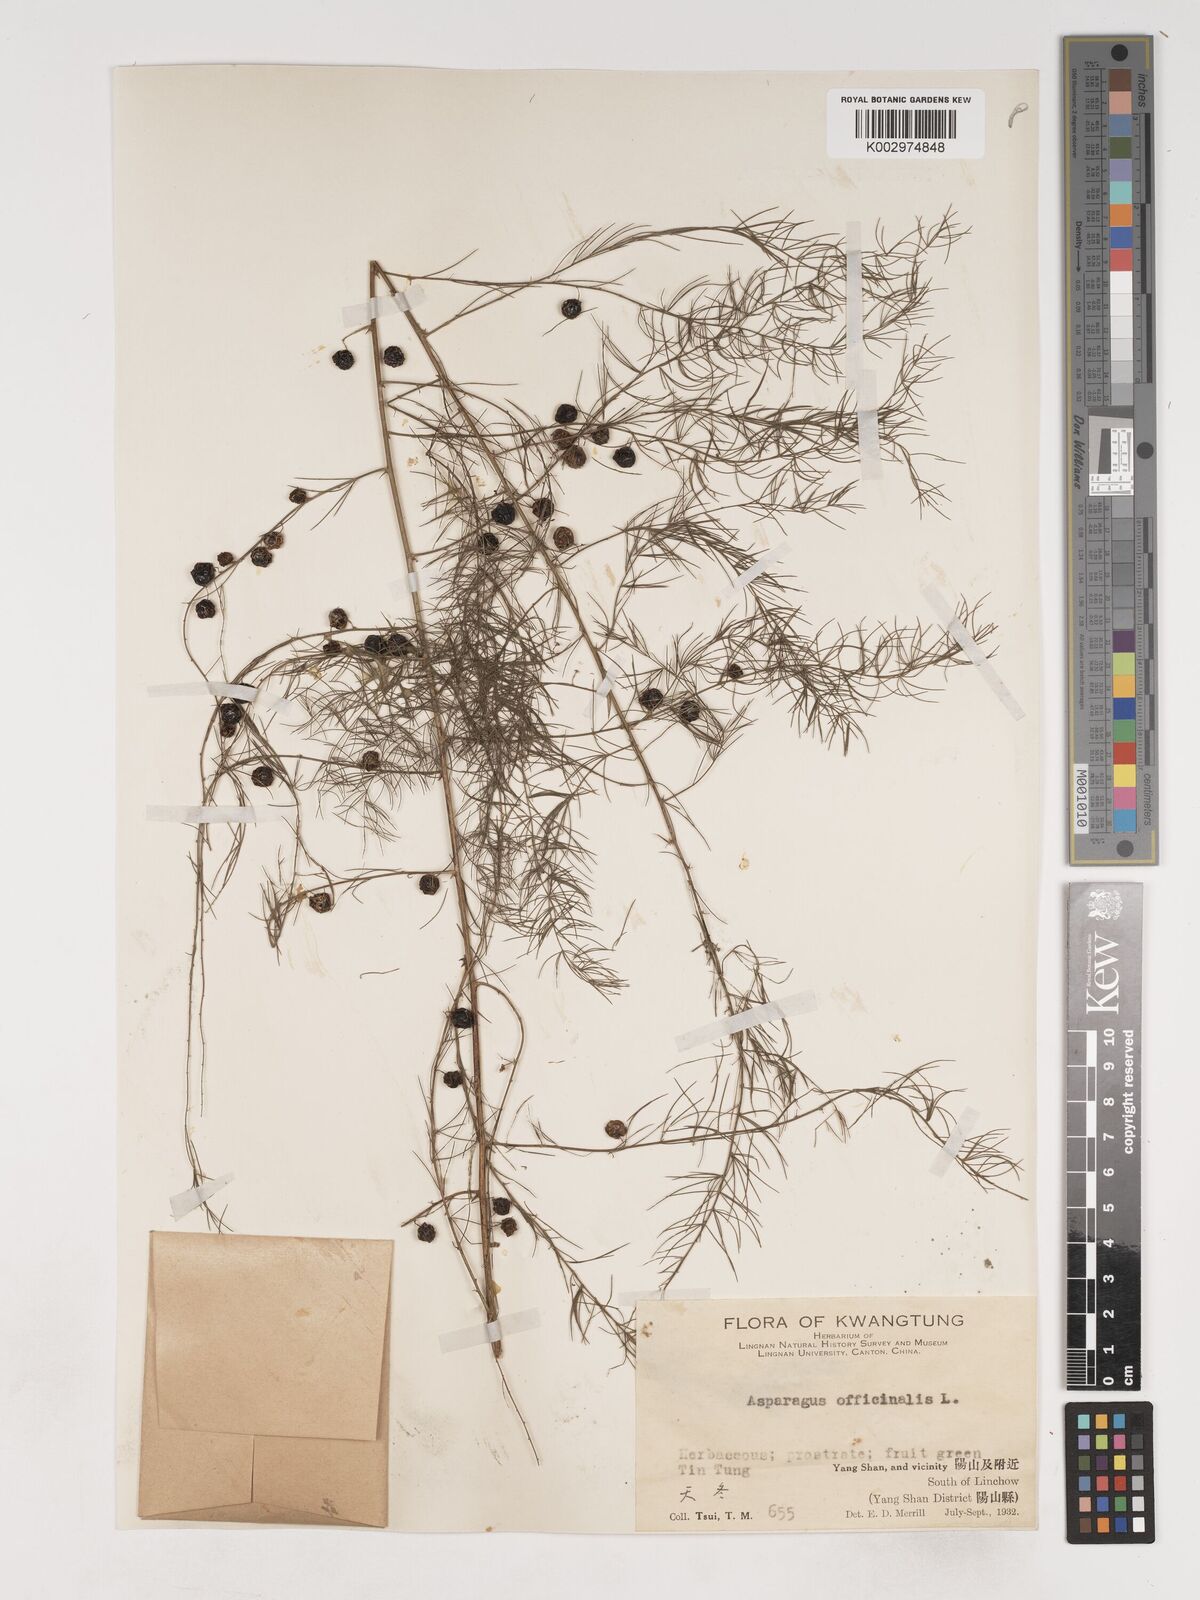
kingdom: Plantae
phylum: Tracheophyta
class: Liliopsida
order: Asparagales
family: Asparagaceae
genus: Asparagus
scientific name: Asparagus officinalis
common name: Garden asparagus
